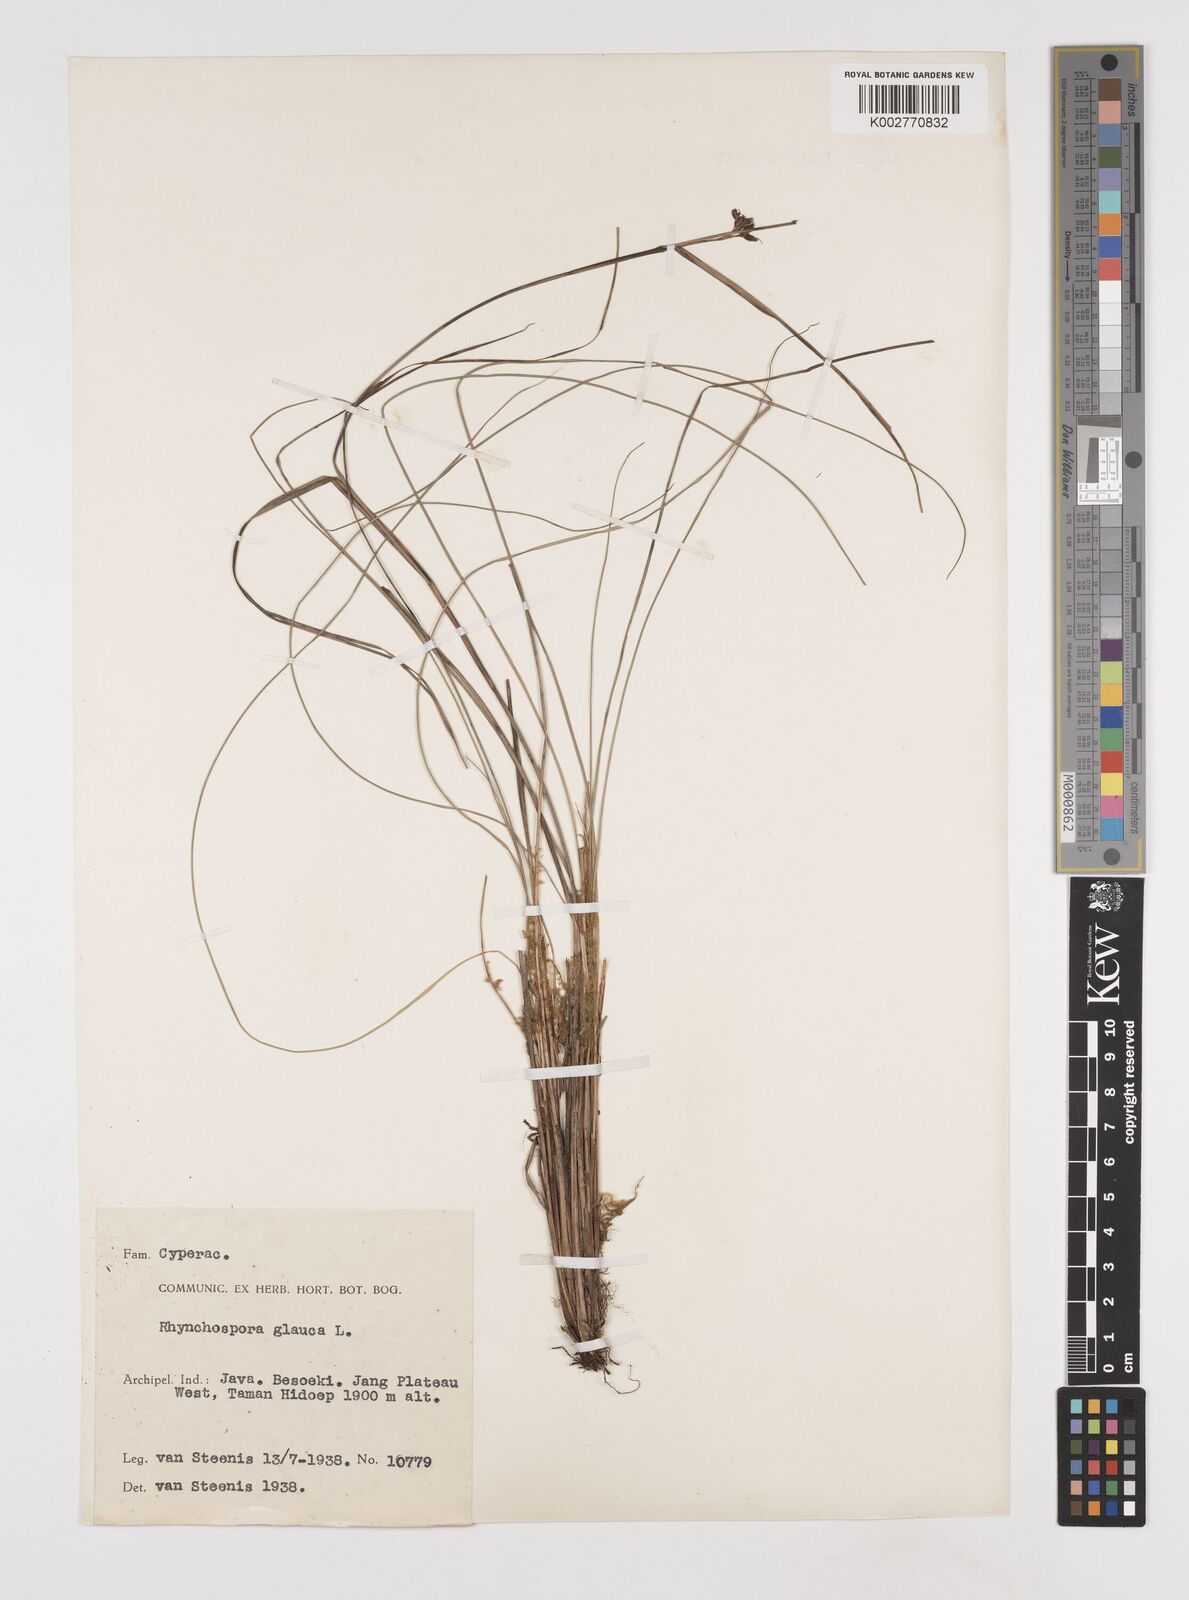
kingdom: Plantae
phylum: Tracheophyta
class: Liliopsida
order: Poales
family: Cyperaceae
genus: Rhynchospora
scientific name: Rhynchospora rugosa
